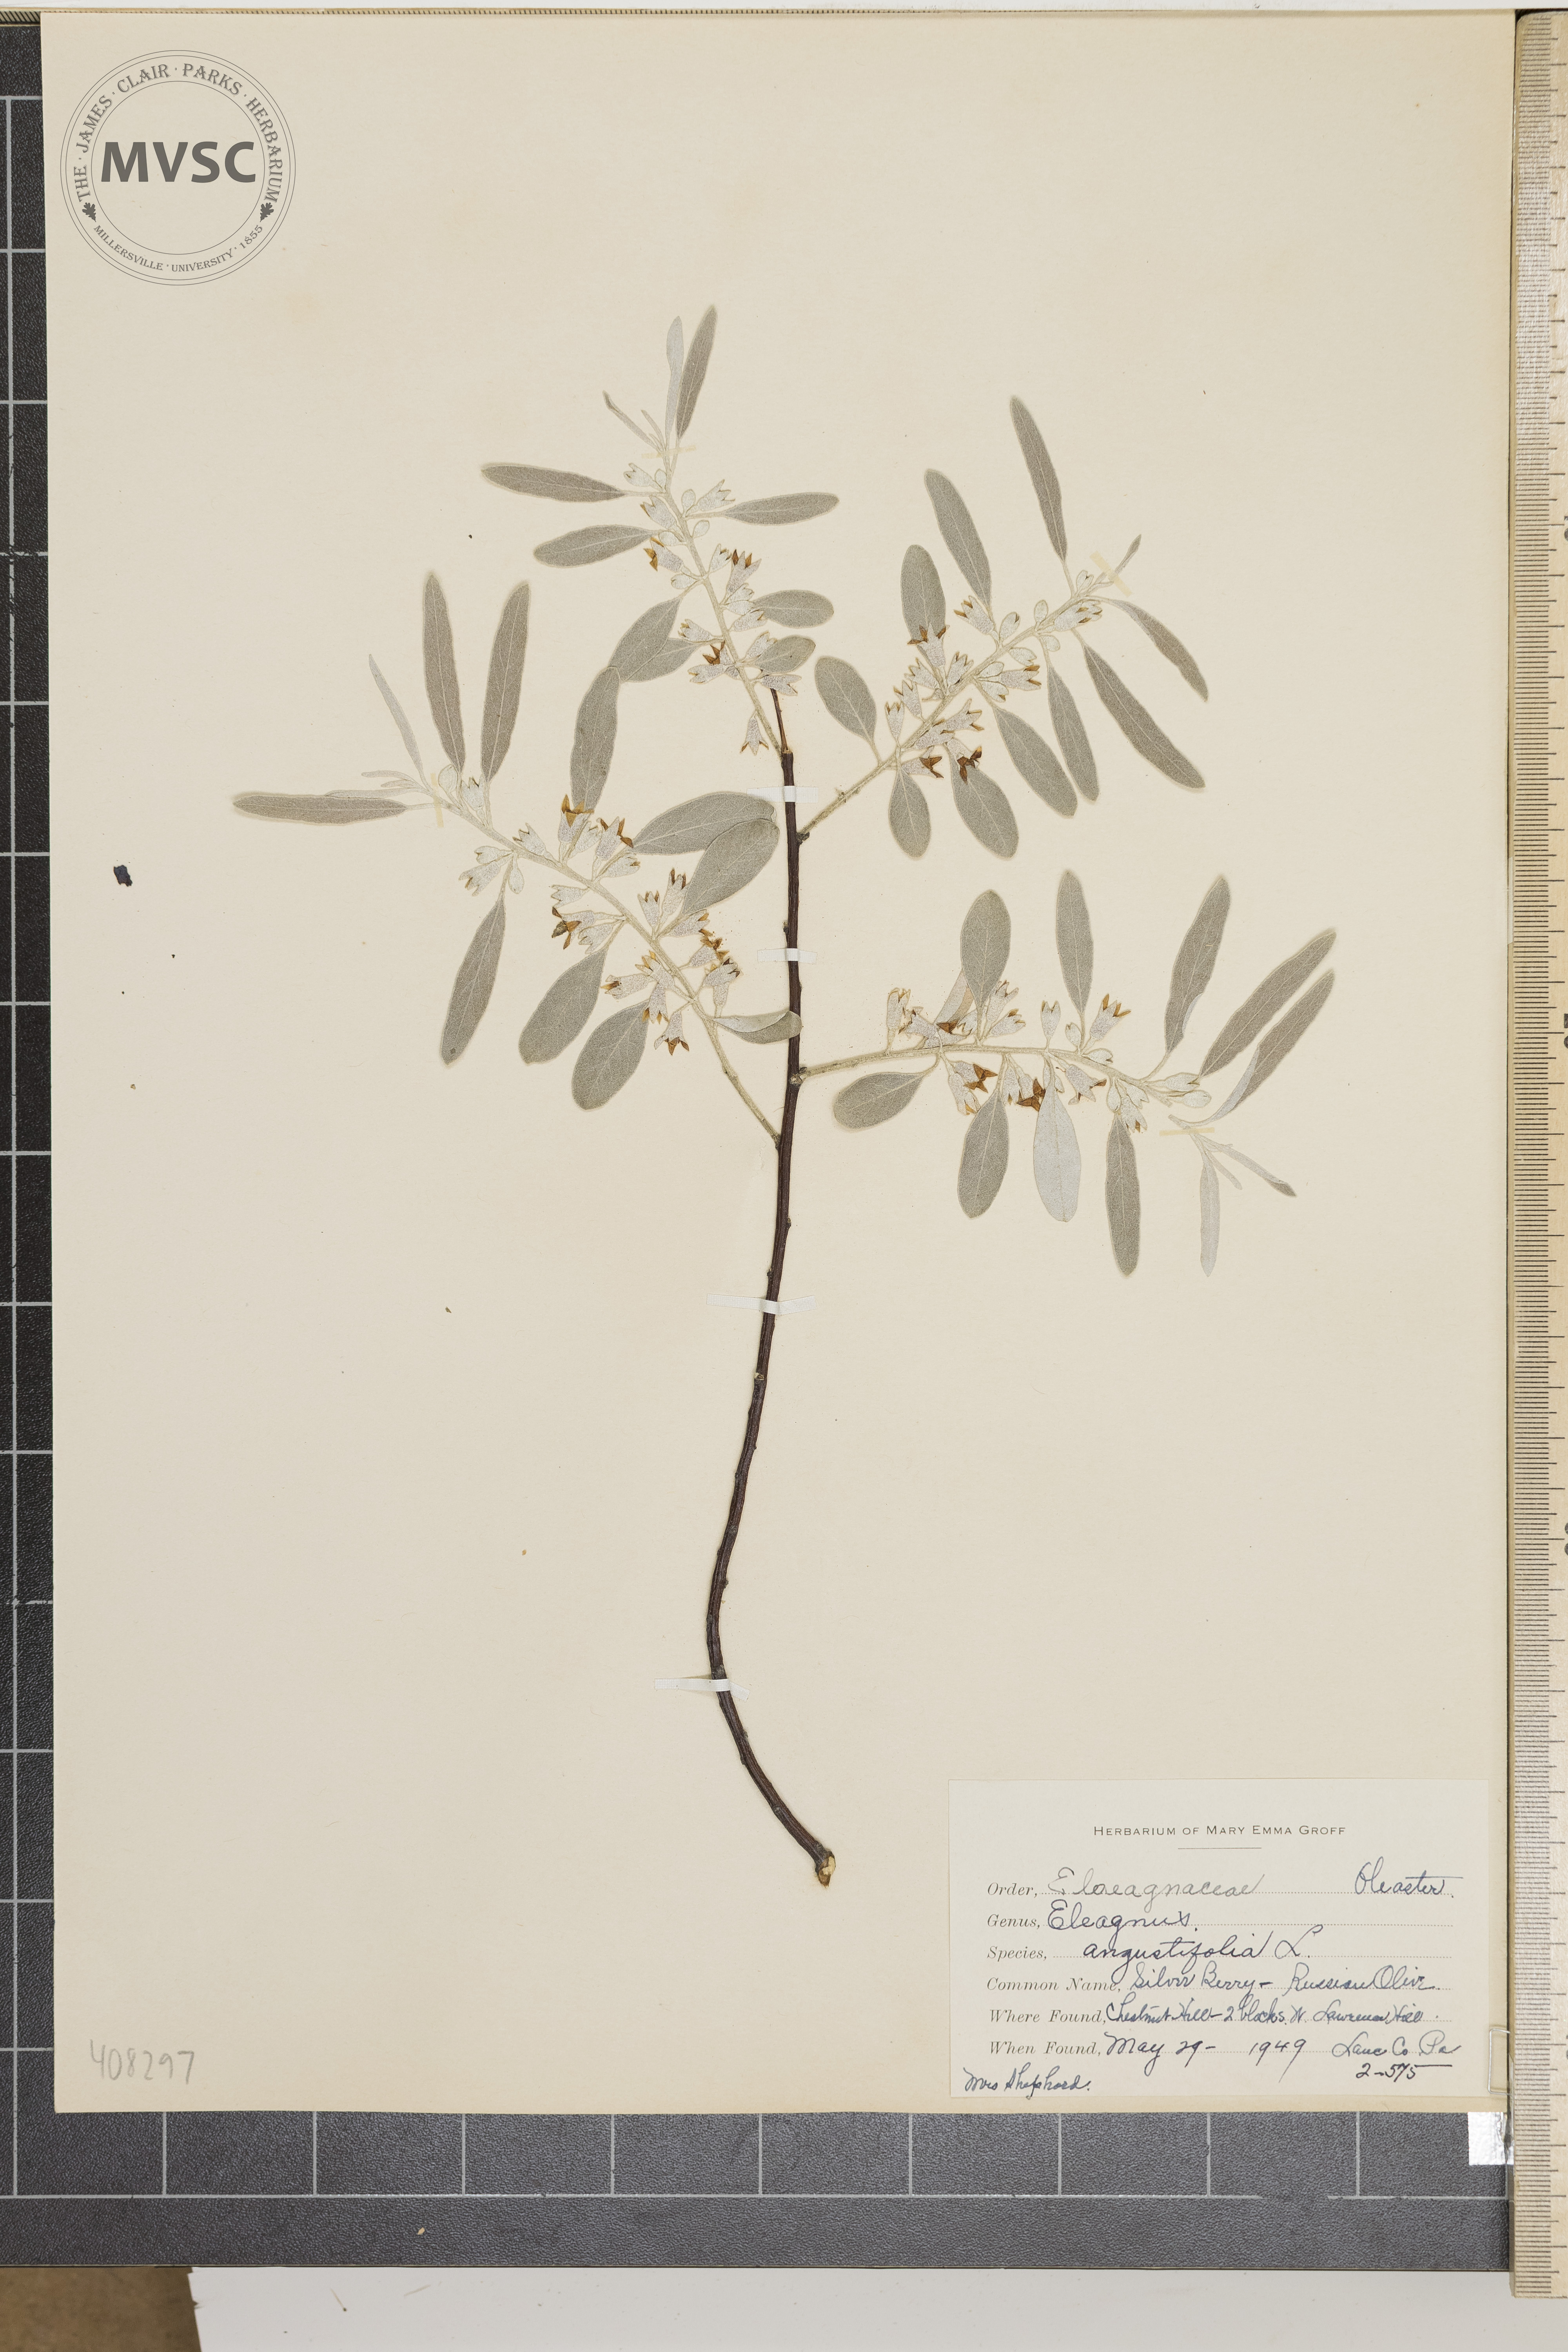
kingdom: Plantae
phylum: Tracheophyta
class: Magnoliopsida
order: Rosales
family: Elaeagnaceae
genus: Elaeagnus
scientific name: Elaeagnus angustifolia
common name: Russian olive
